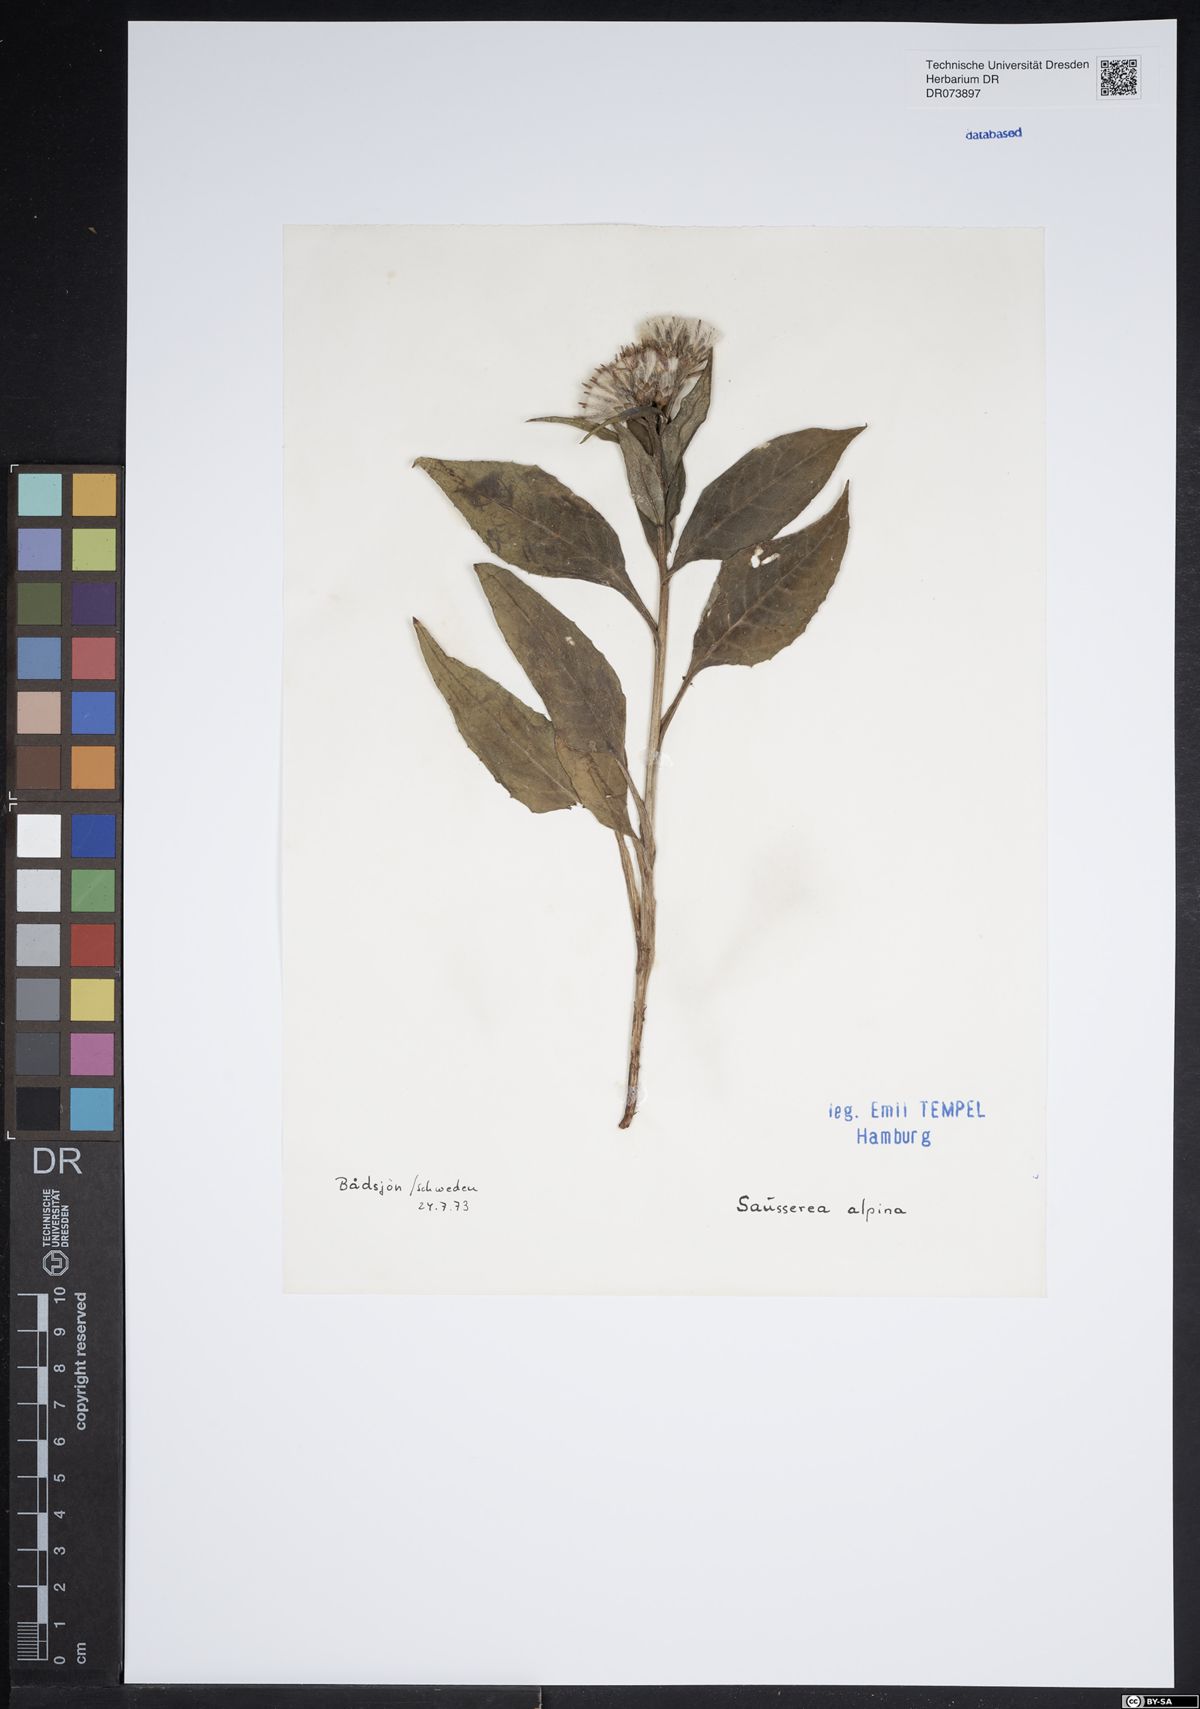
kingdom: Plantae
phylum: Tracheophyta
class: Magnoliopsida
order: Asterales
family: Asteraceae
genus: Saussurea
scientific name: Saussurea alpina
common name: Alpine saw-wort
